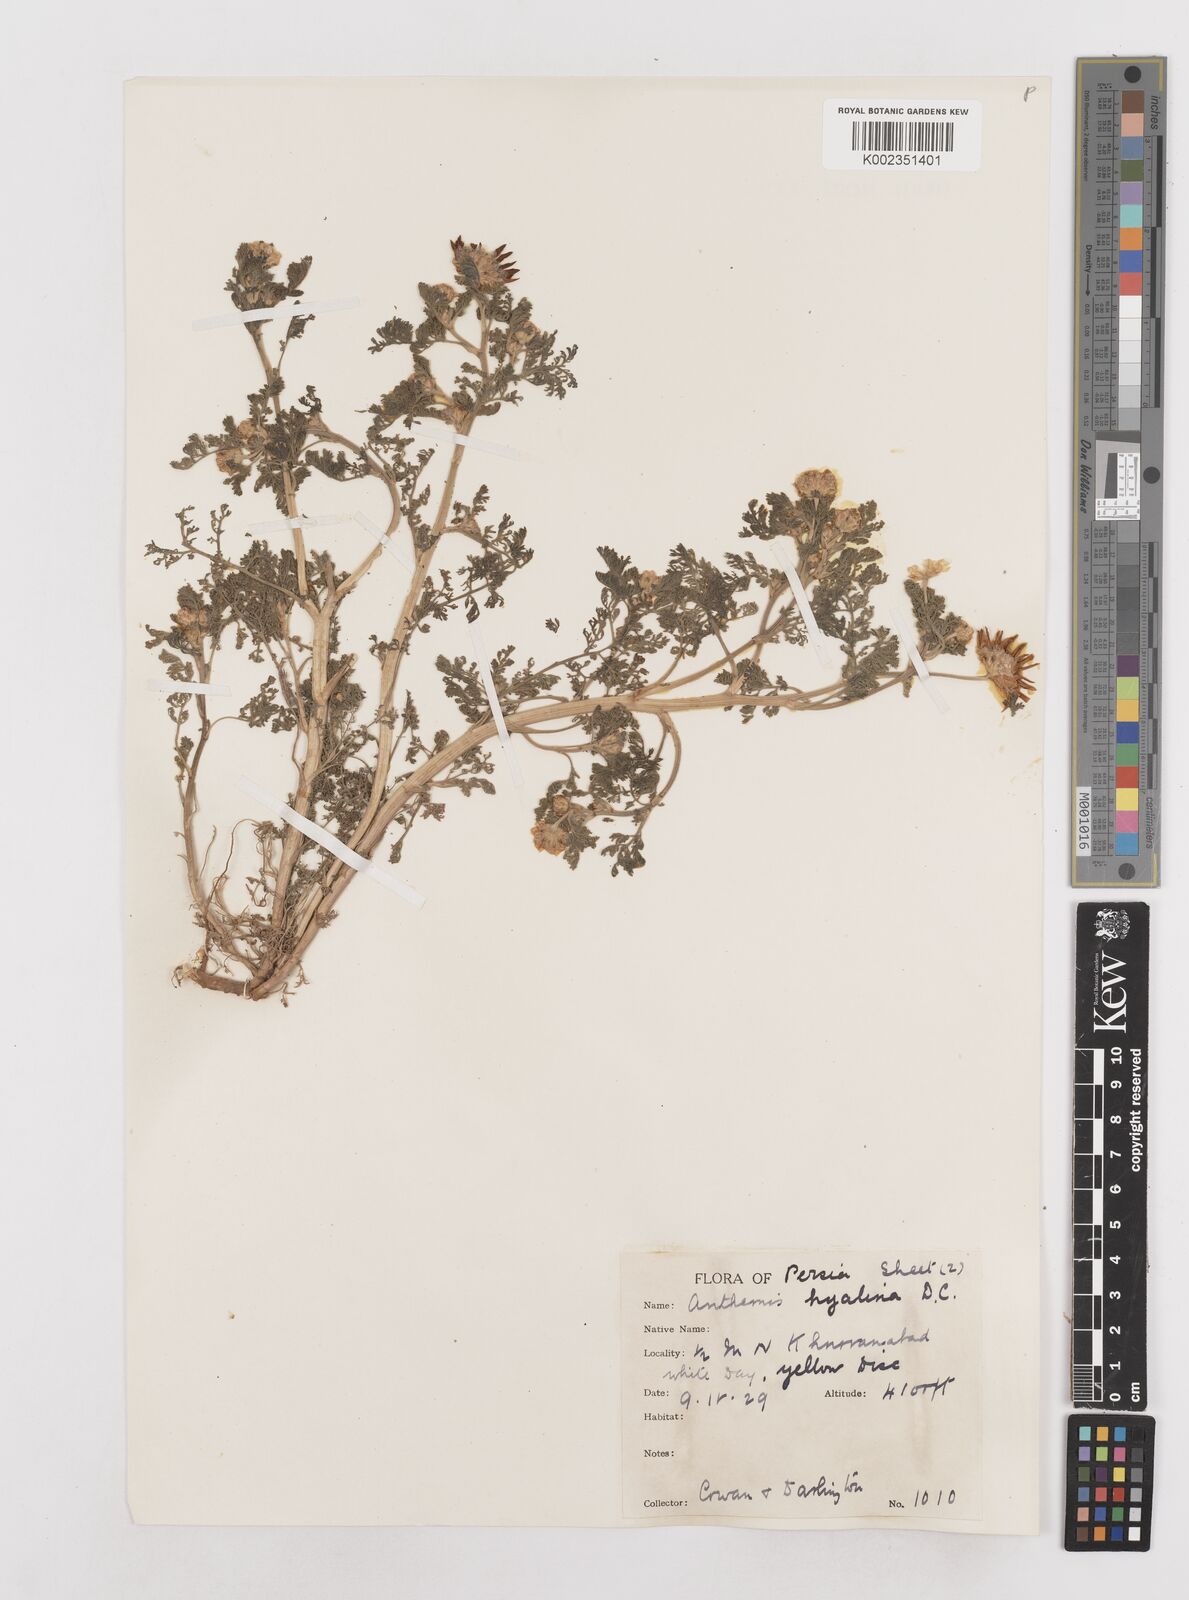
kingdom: Plantae
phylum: Tracheophyta
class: Magnoliopsida
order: Asterales
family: Asteraceae
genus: Anthemis
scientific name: Anthemis hyalina
